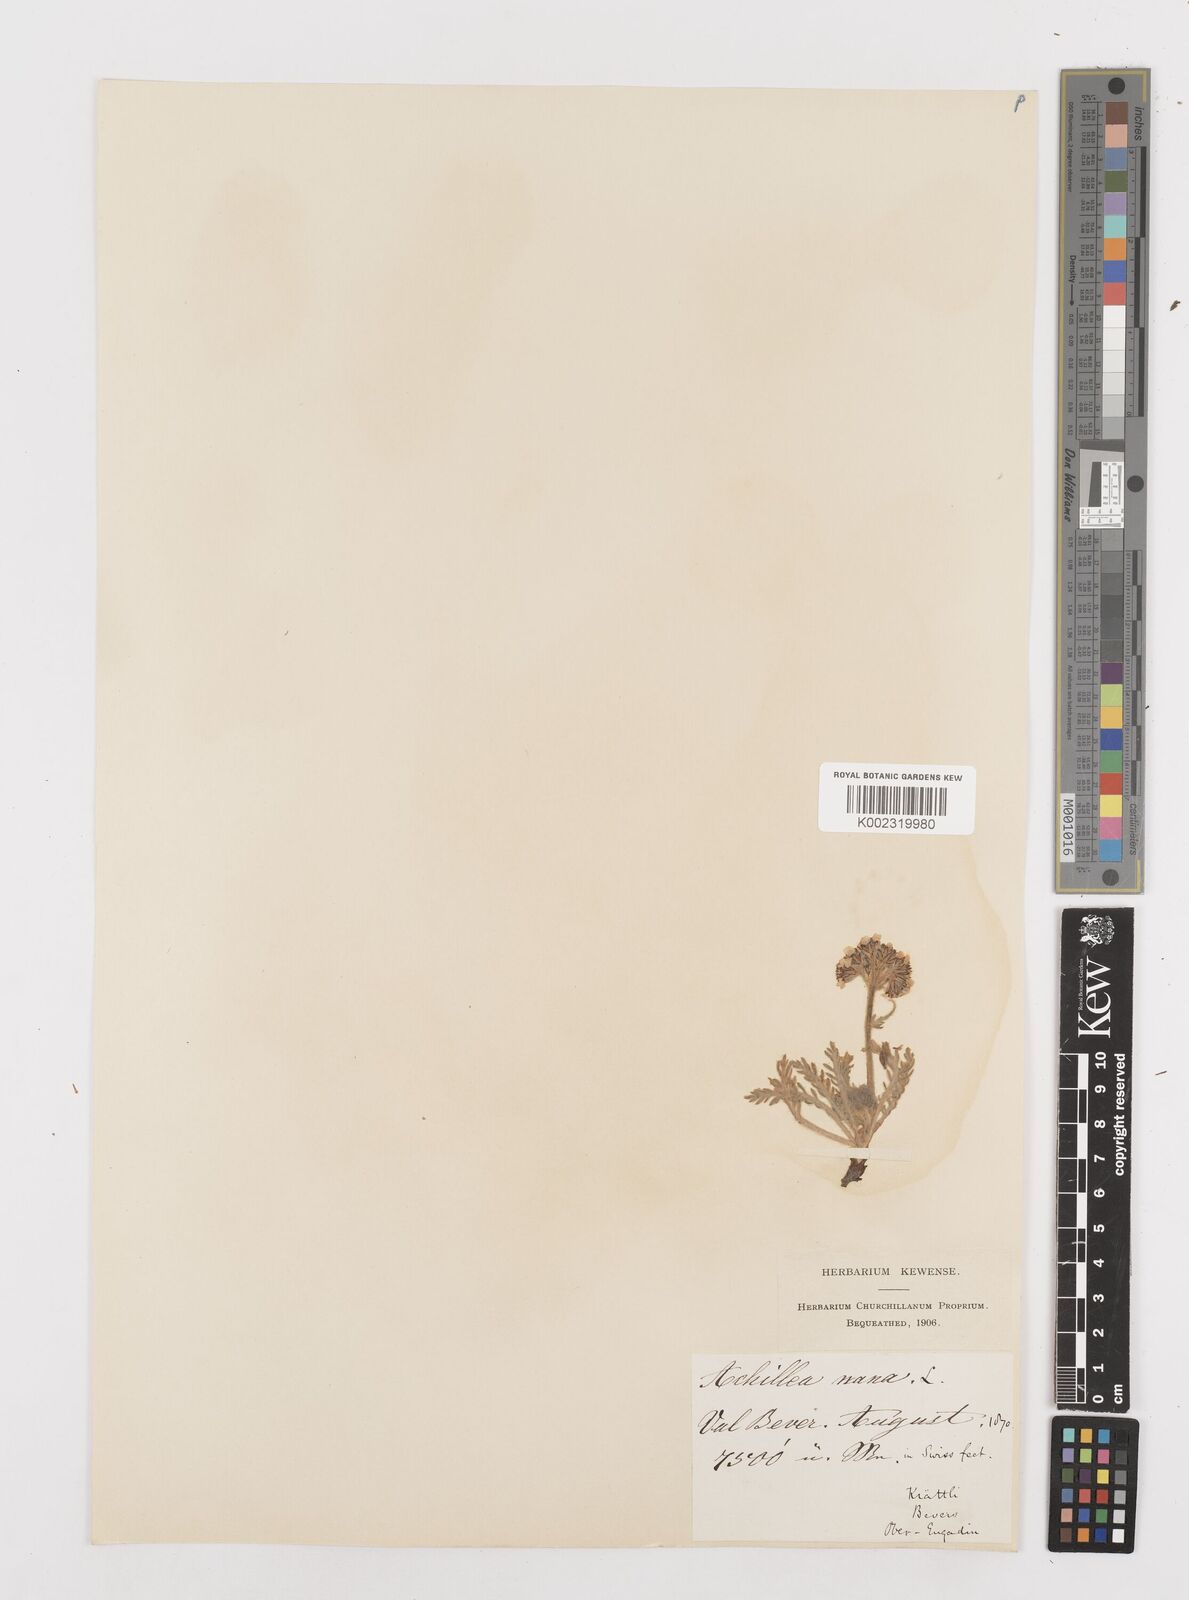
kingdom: Plantae
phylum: Tracheophyta
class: Magnoliopsida
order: Asterales
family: Asteraceae
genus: Achillea
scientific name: Achillea nana
